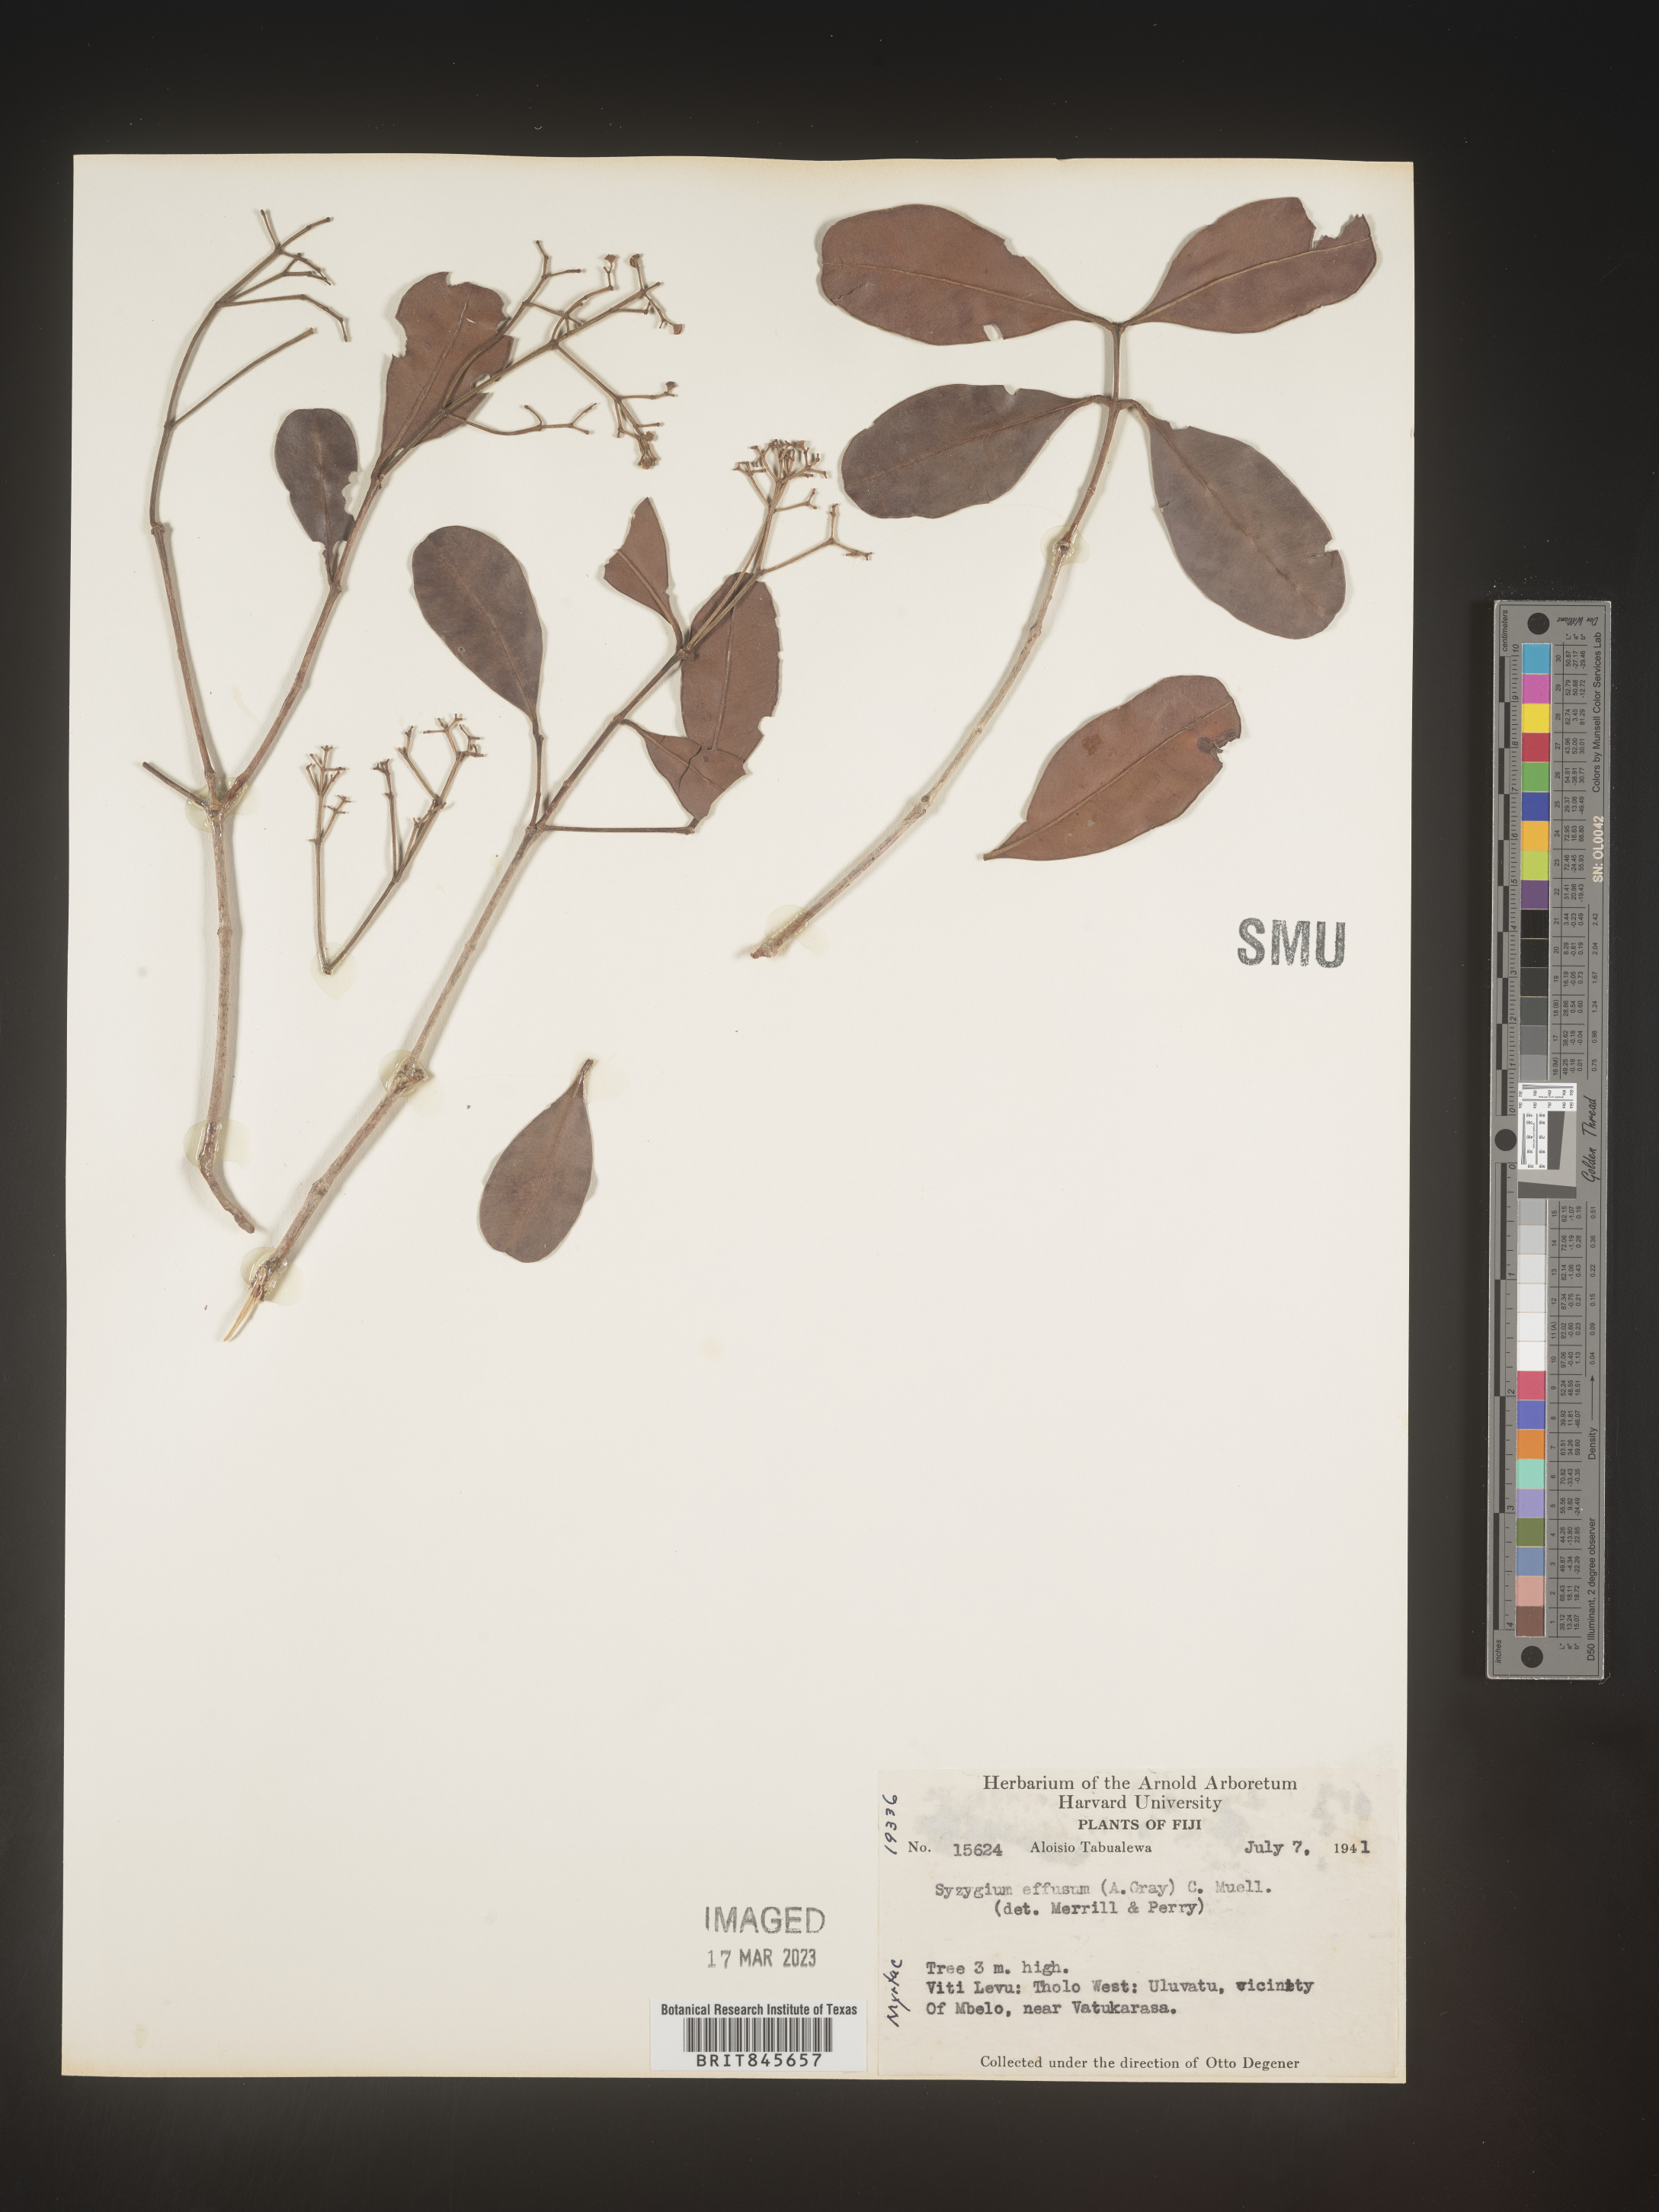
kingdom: Plantae
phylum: Tracheophyta
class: Magnoliopsida
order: Myrtales
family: Myrtaceae
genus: Syzygium
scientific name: Syzygium
